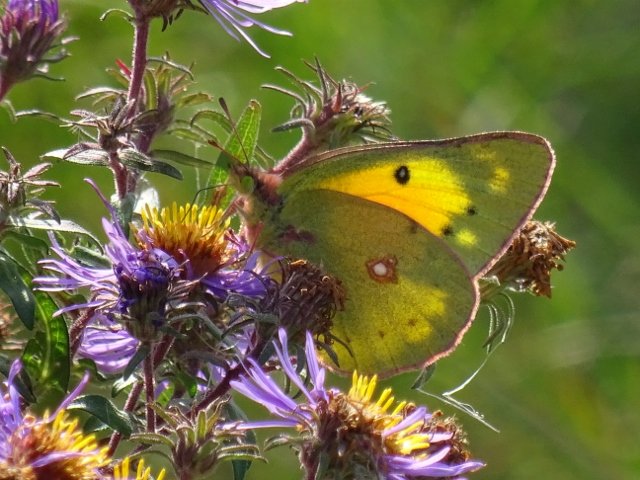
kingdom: Animalia
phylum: Arthropoda
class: Insecta
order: Lepidoptera
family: Pieridae
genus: Colias
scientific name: Colias eurytheme
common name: Orange Sulphur
